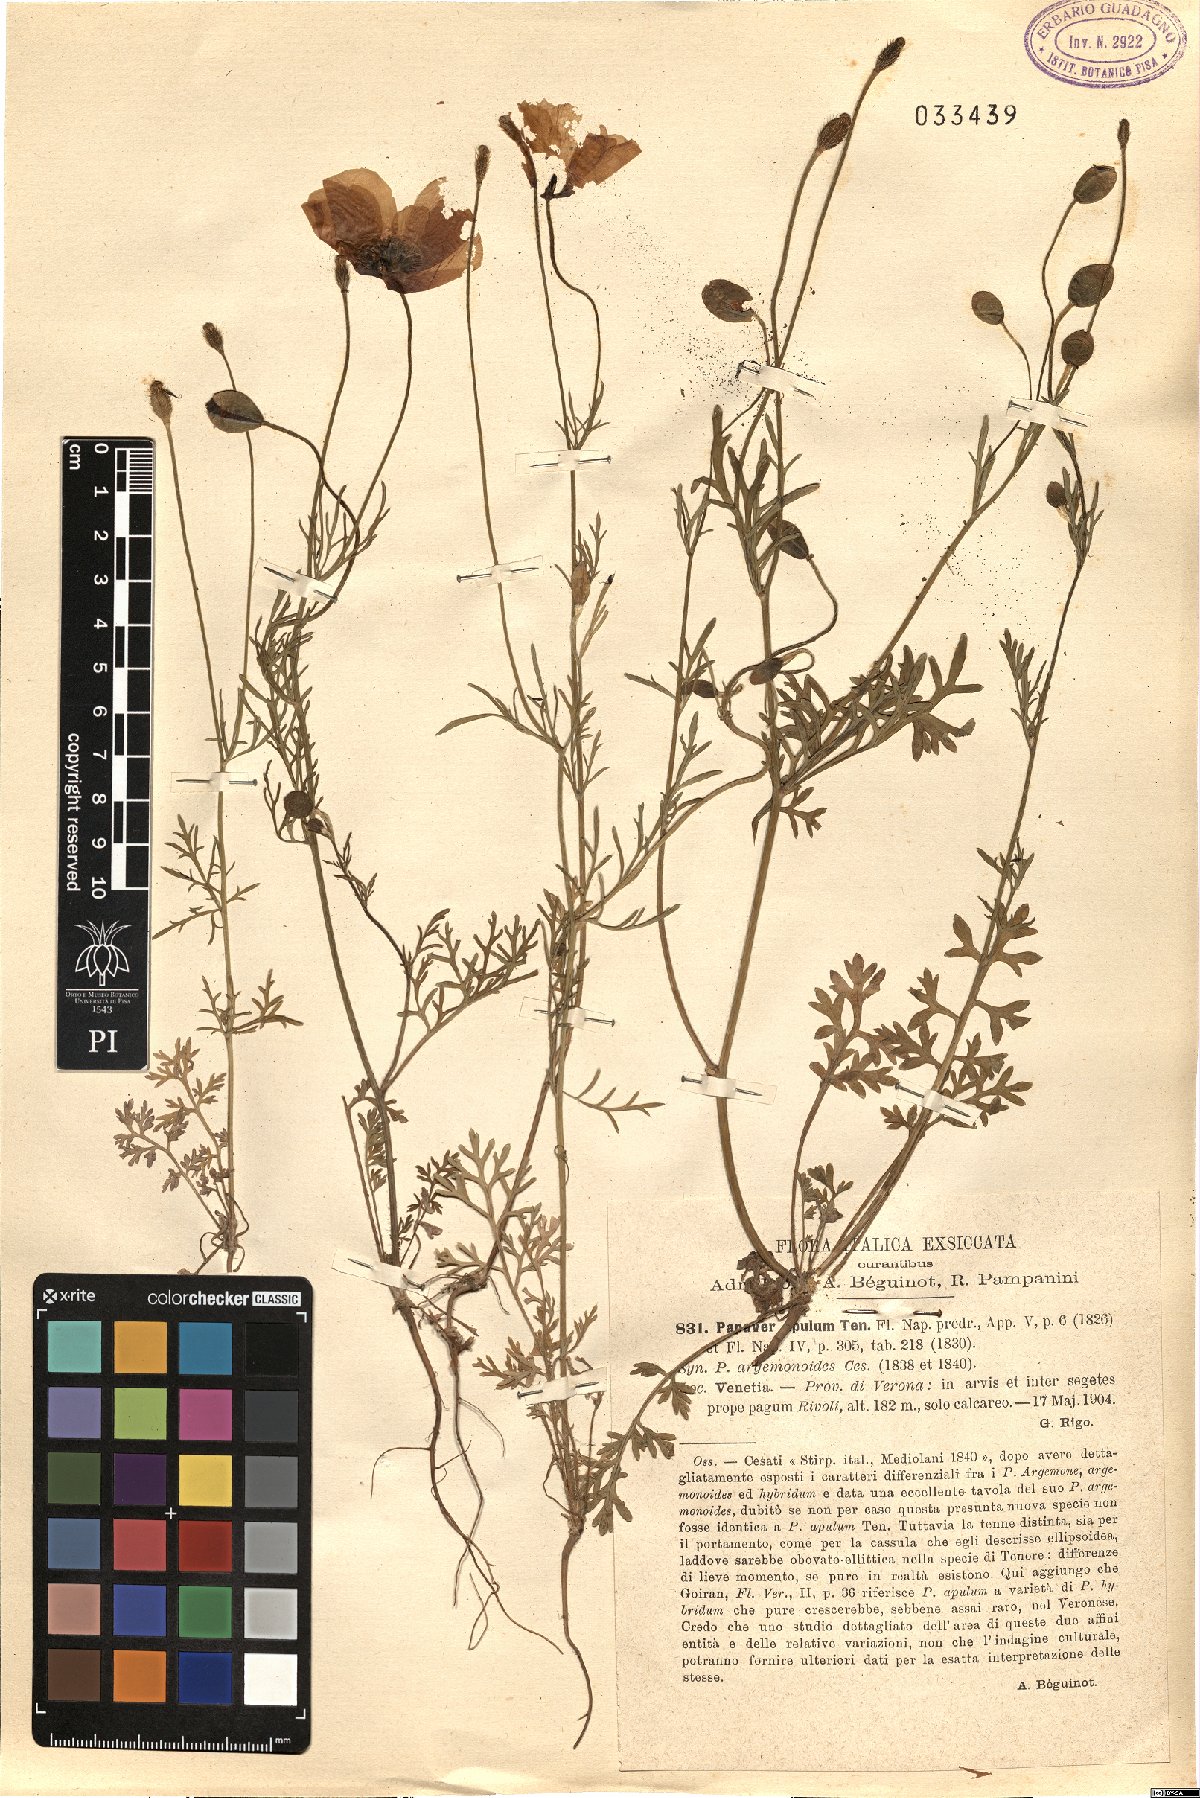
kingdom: Plantae
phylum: Tracheophyta
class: Magnoliopsida
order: Ranunculales
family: Papaveraceae
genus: Roemeria
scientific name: Roemeria apula
